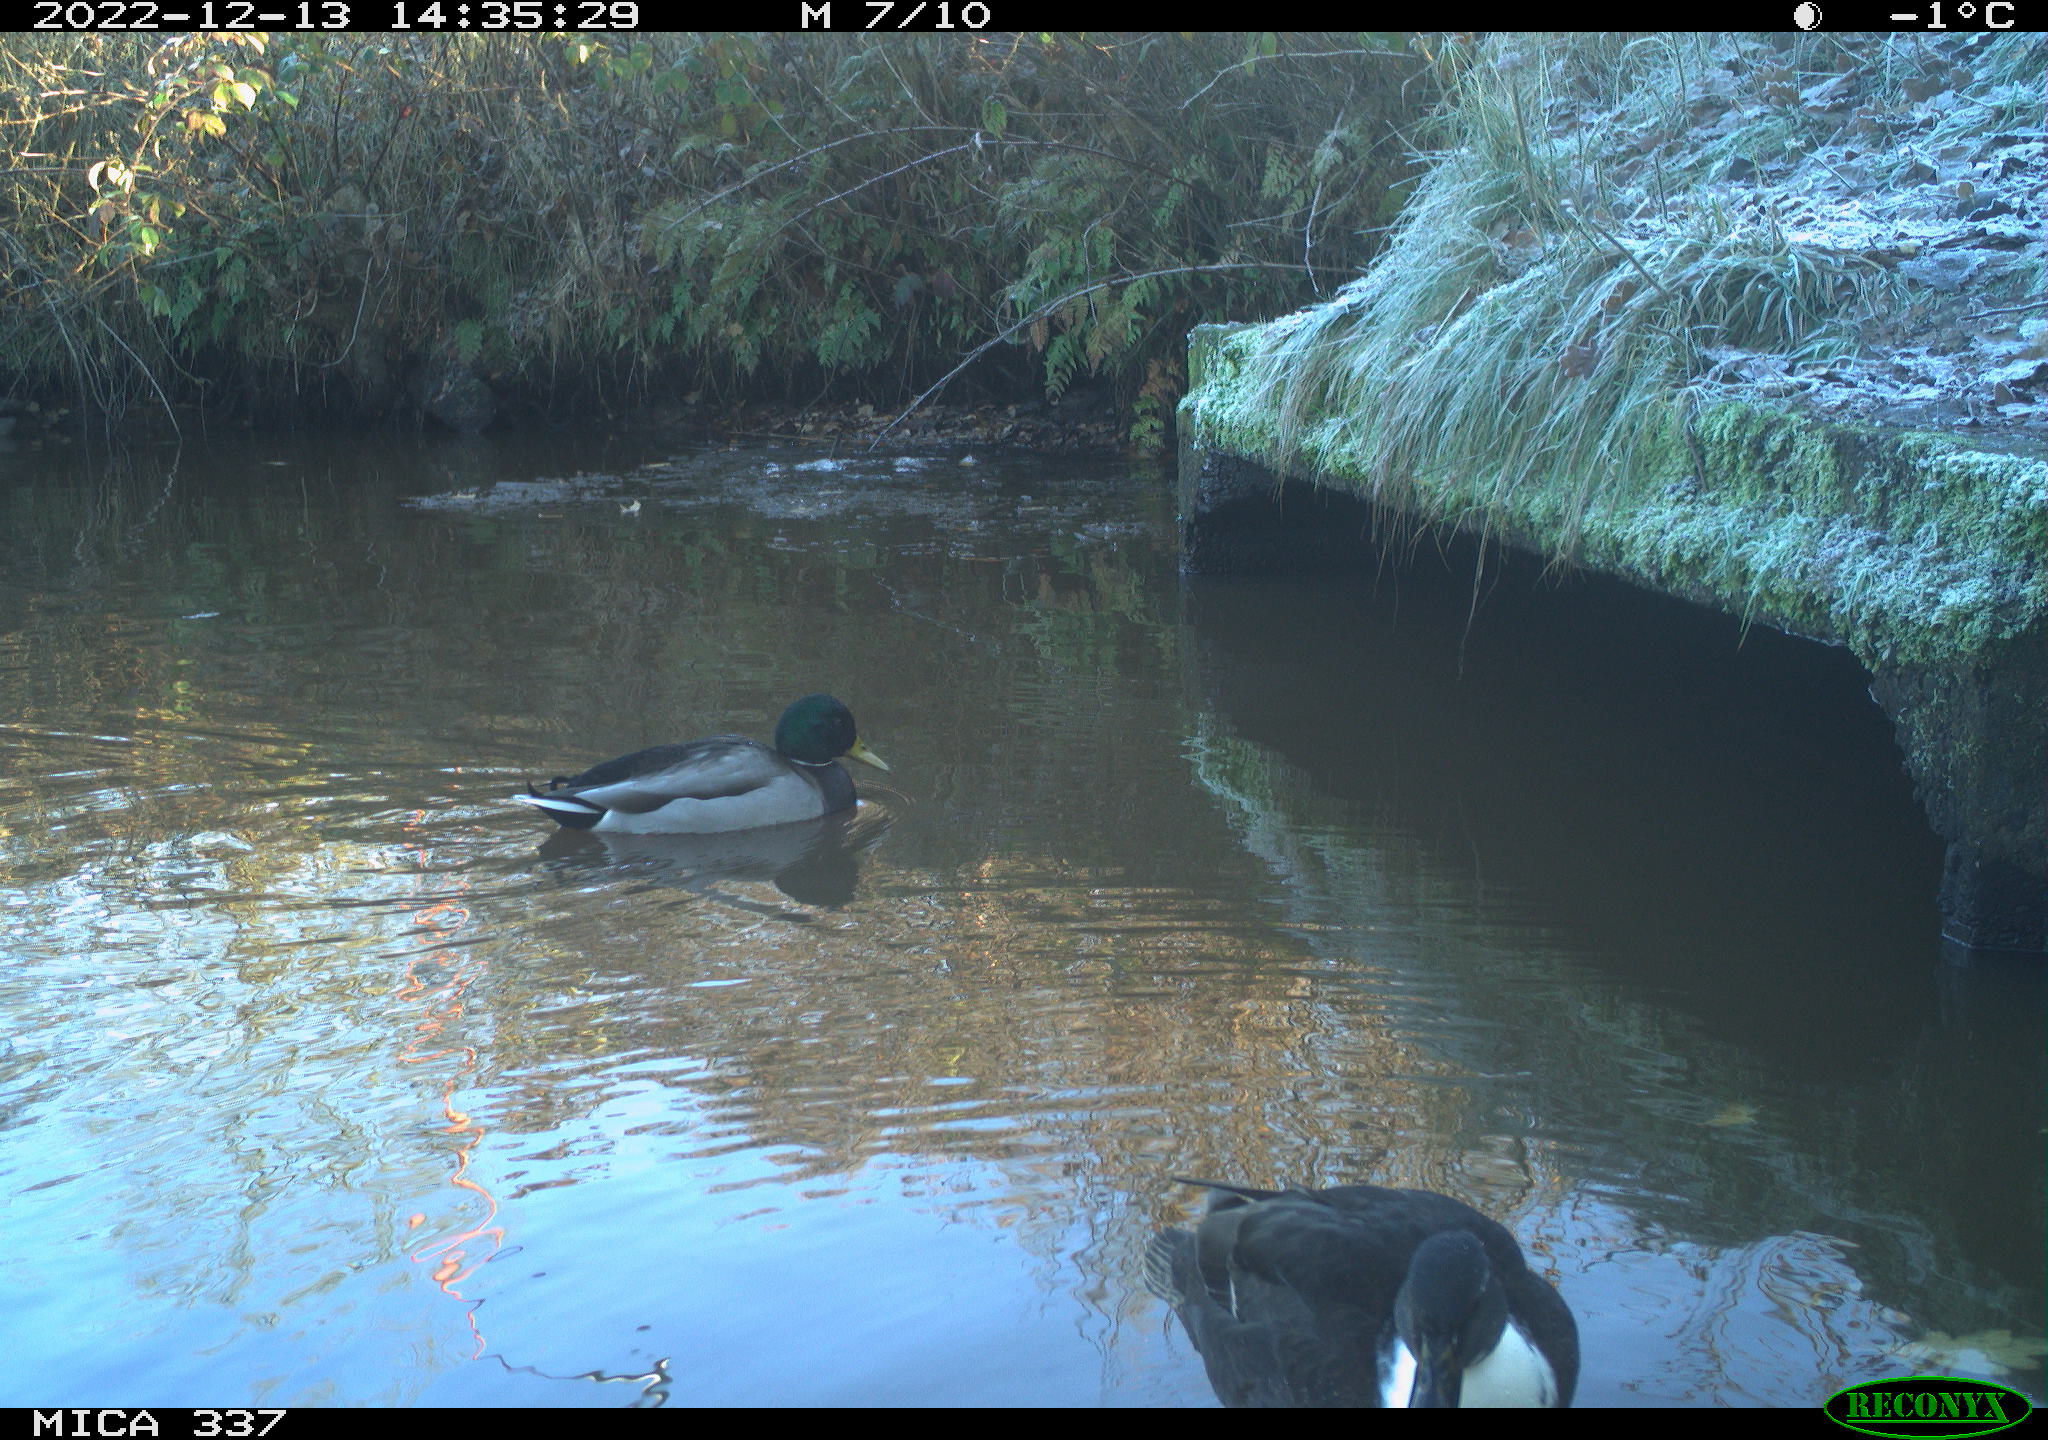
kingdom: Animalia
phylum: Chordata
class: Aves
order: Anseriformes
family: Anatidae
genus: Anas
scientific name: Anas platyrhynchos
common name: Mallard
